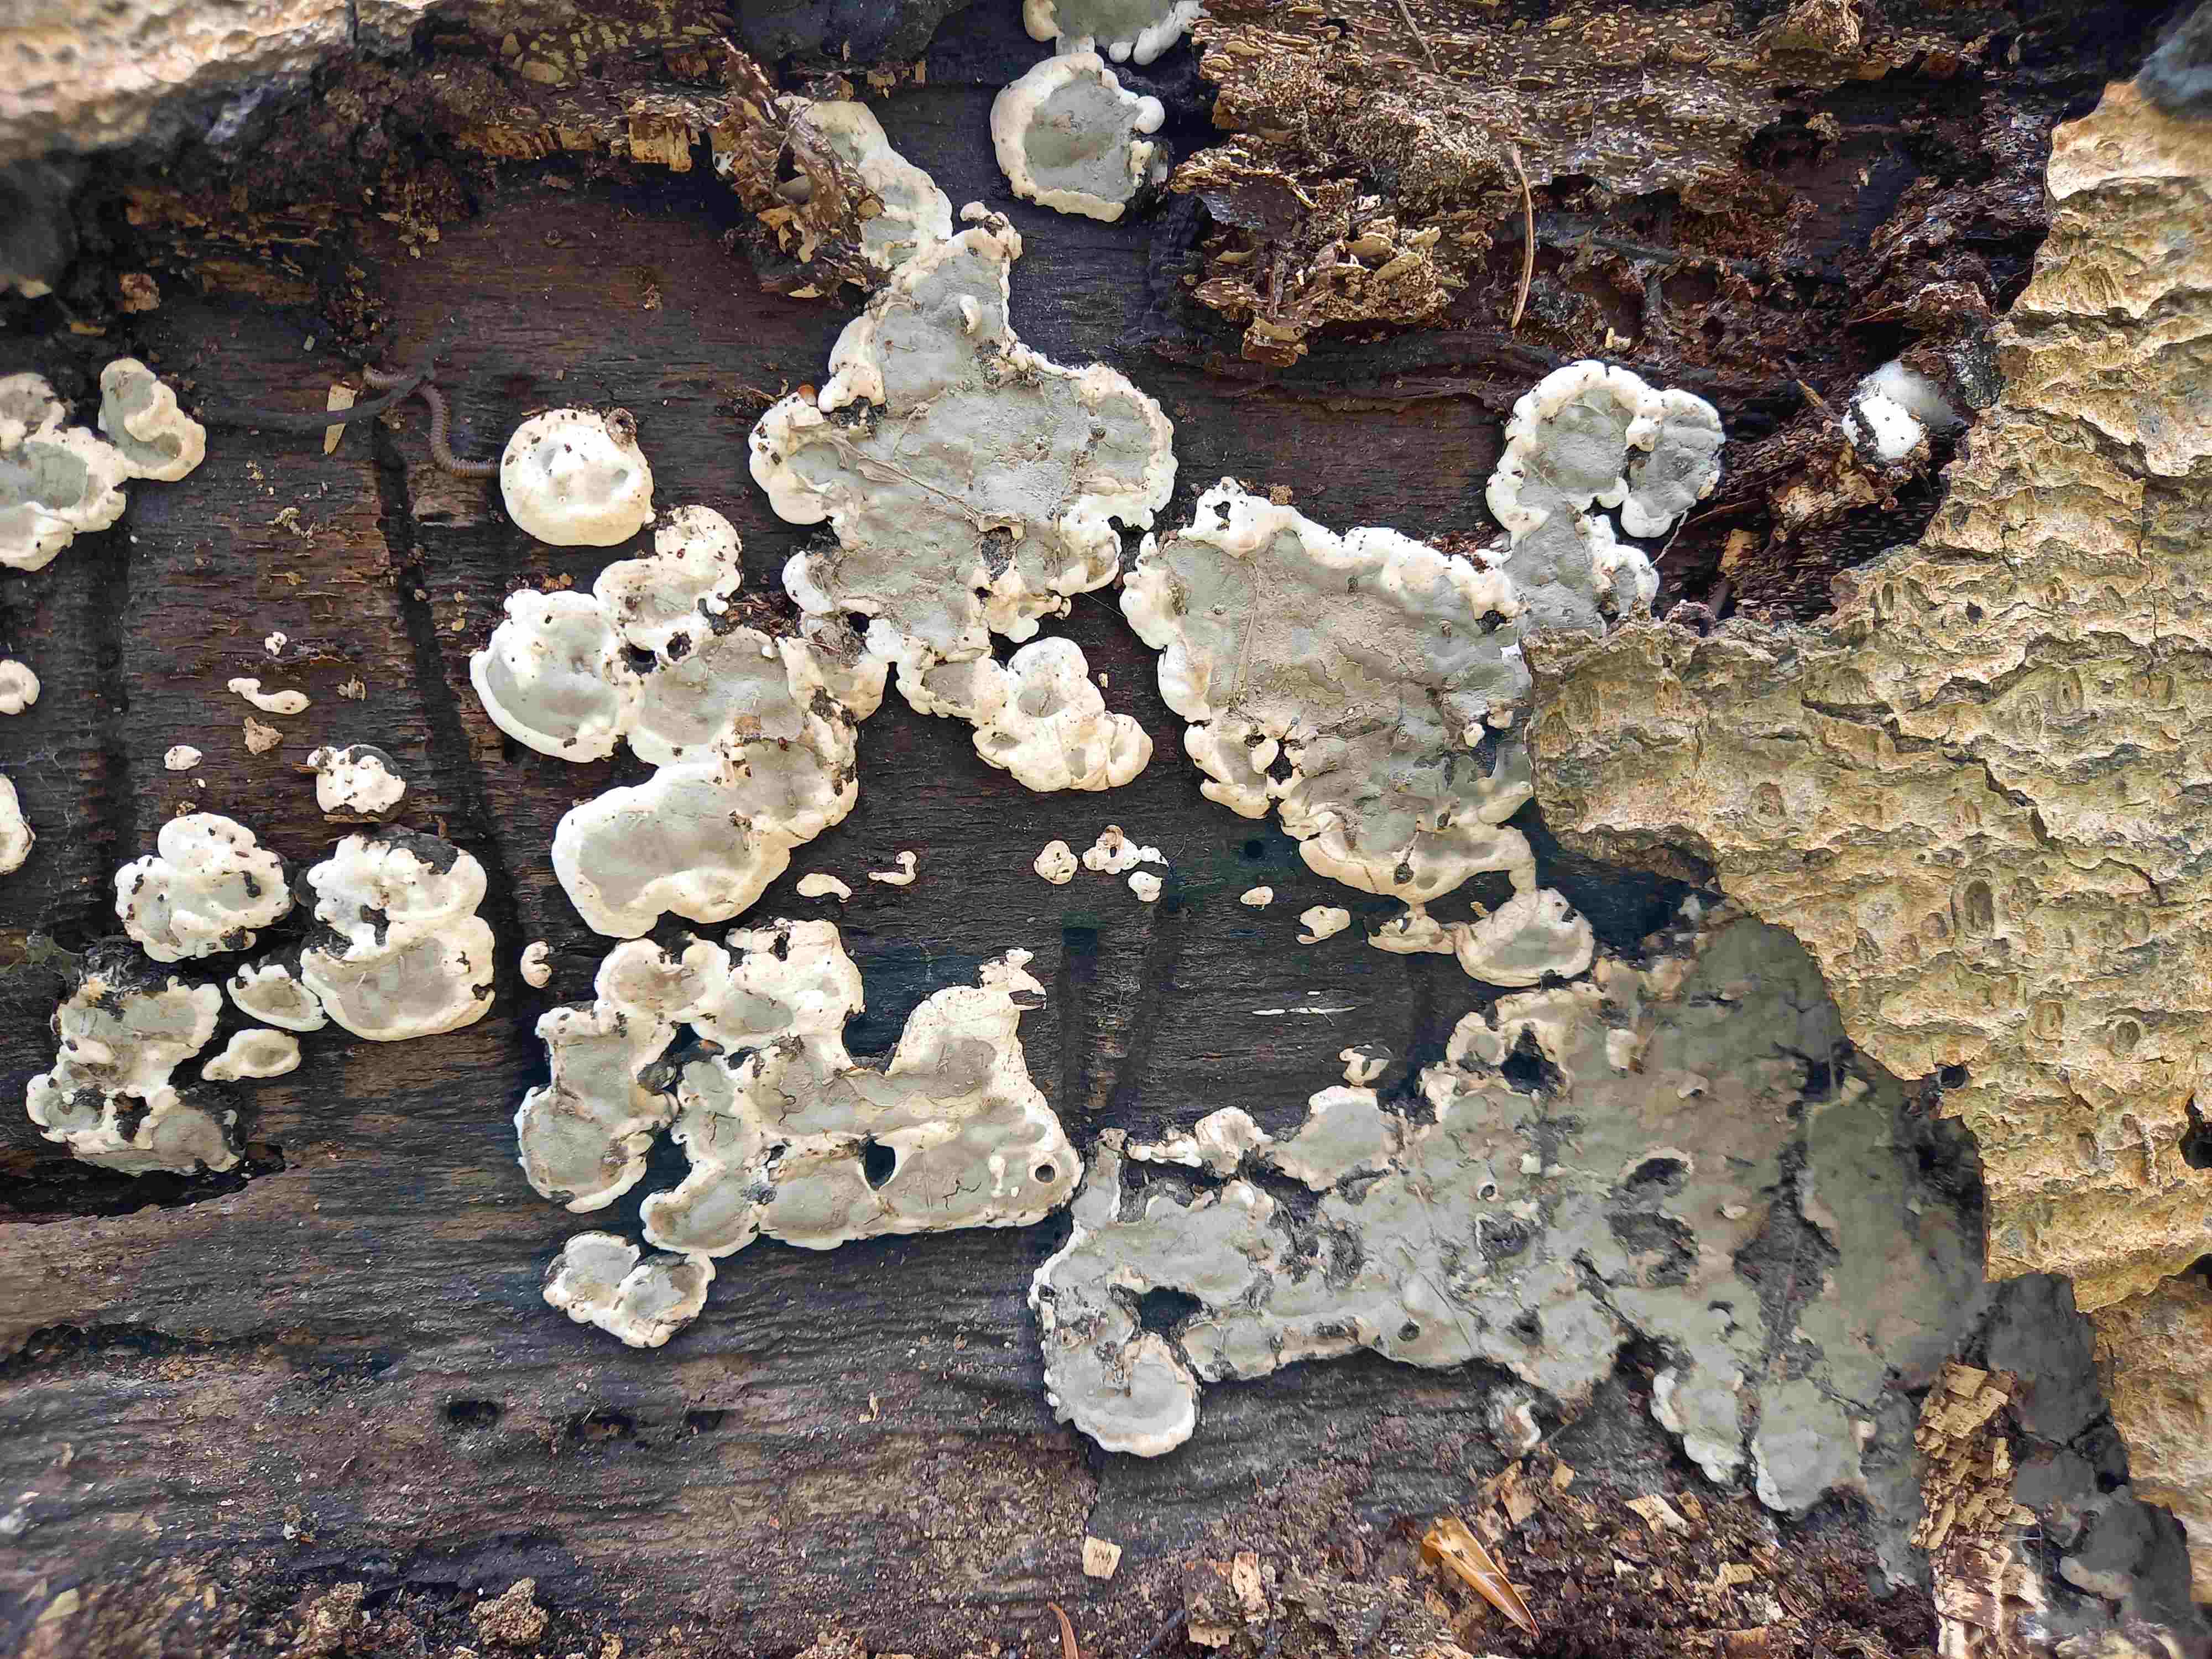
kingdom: Fungi
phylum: Ascomycota
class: Sordariomycetes
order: Xylariales
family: Xylariaceae
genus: Kretzschmaria
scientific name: Kretzschmaria deusta
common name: stor kulsvamp
